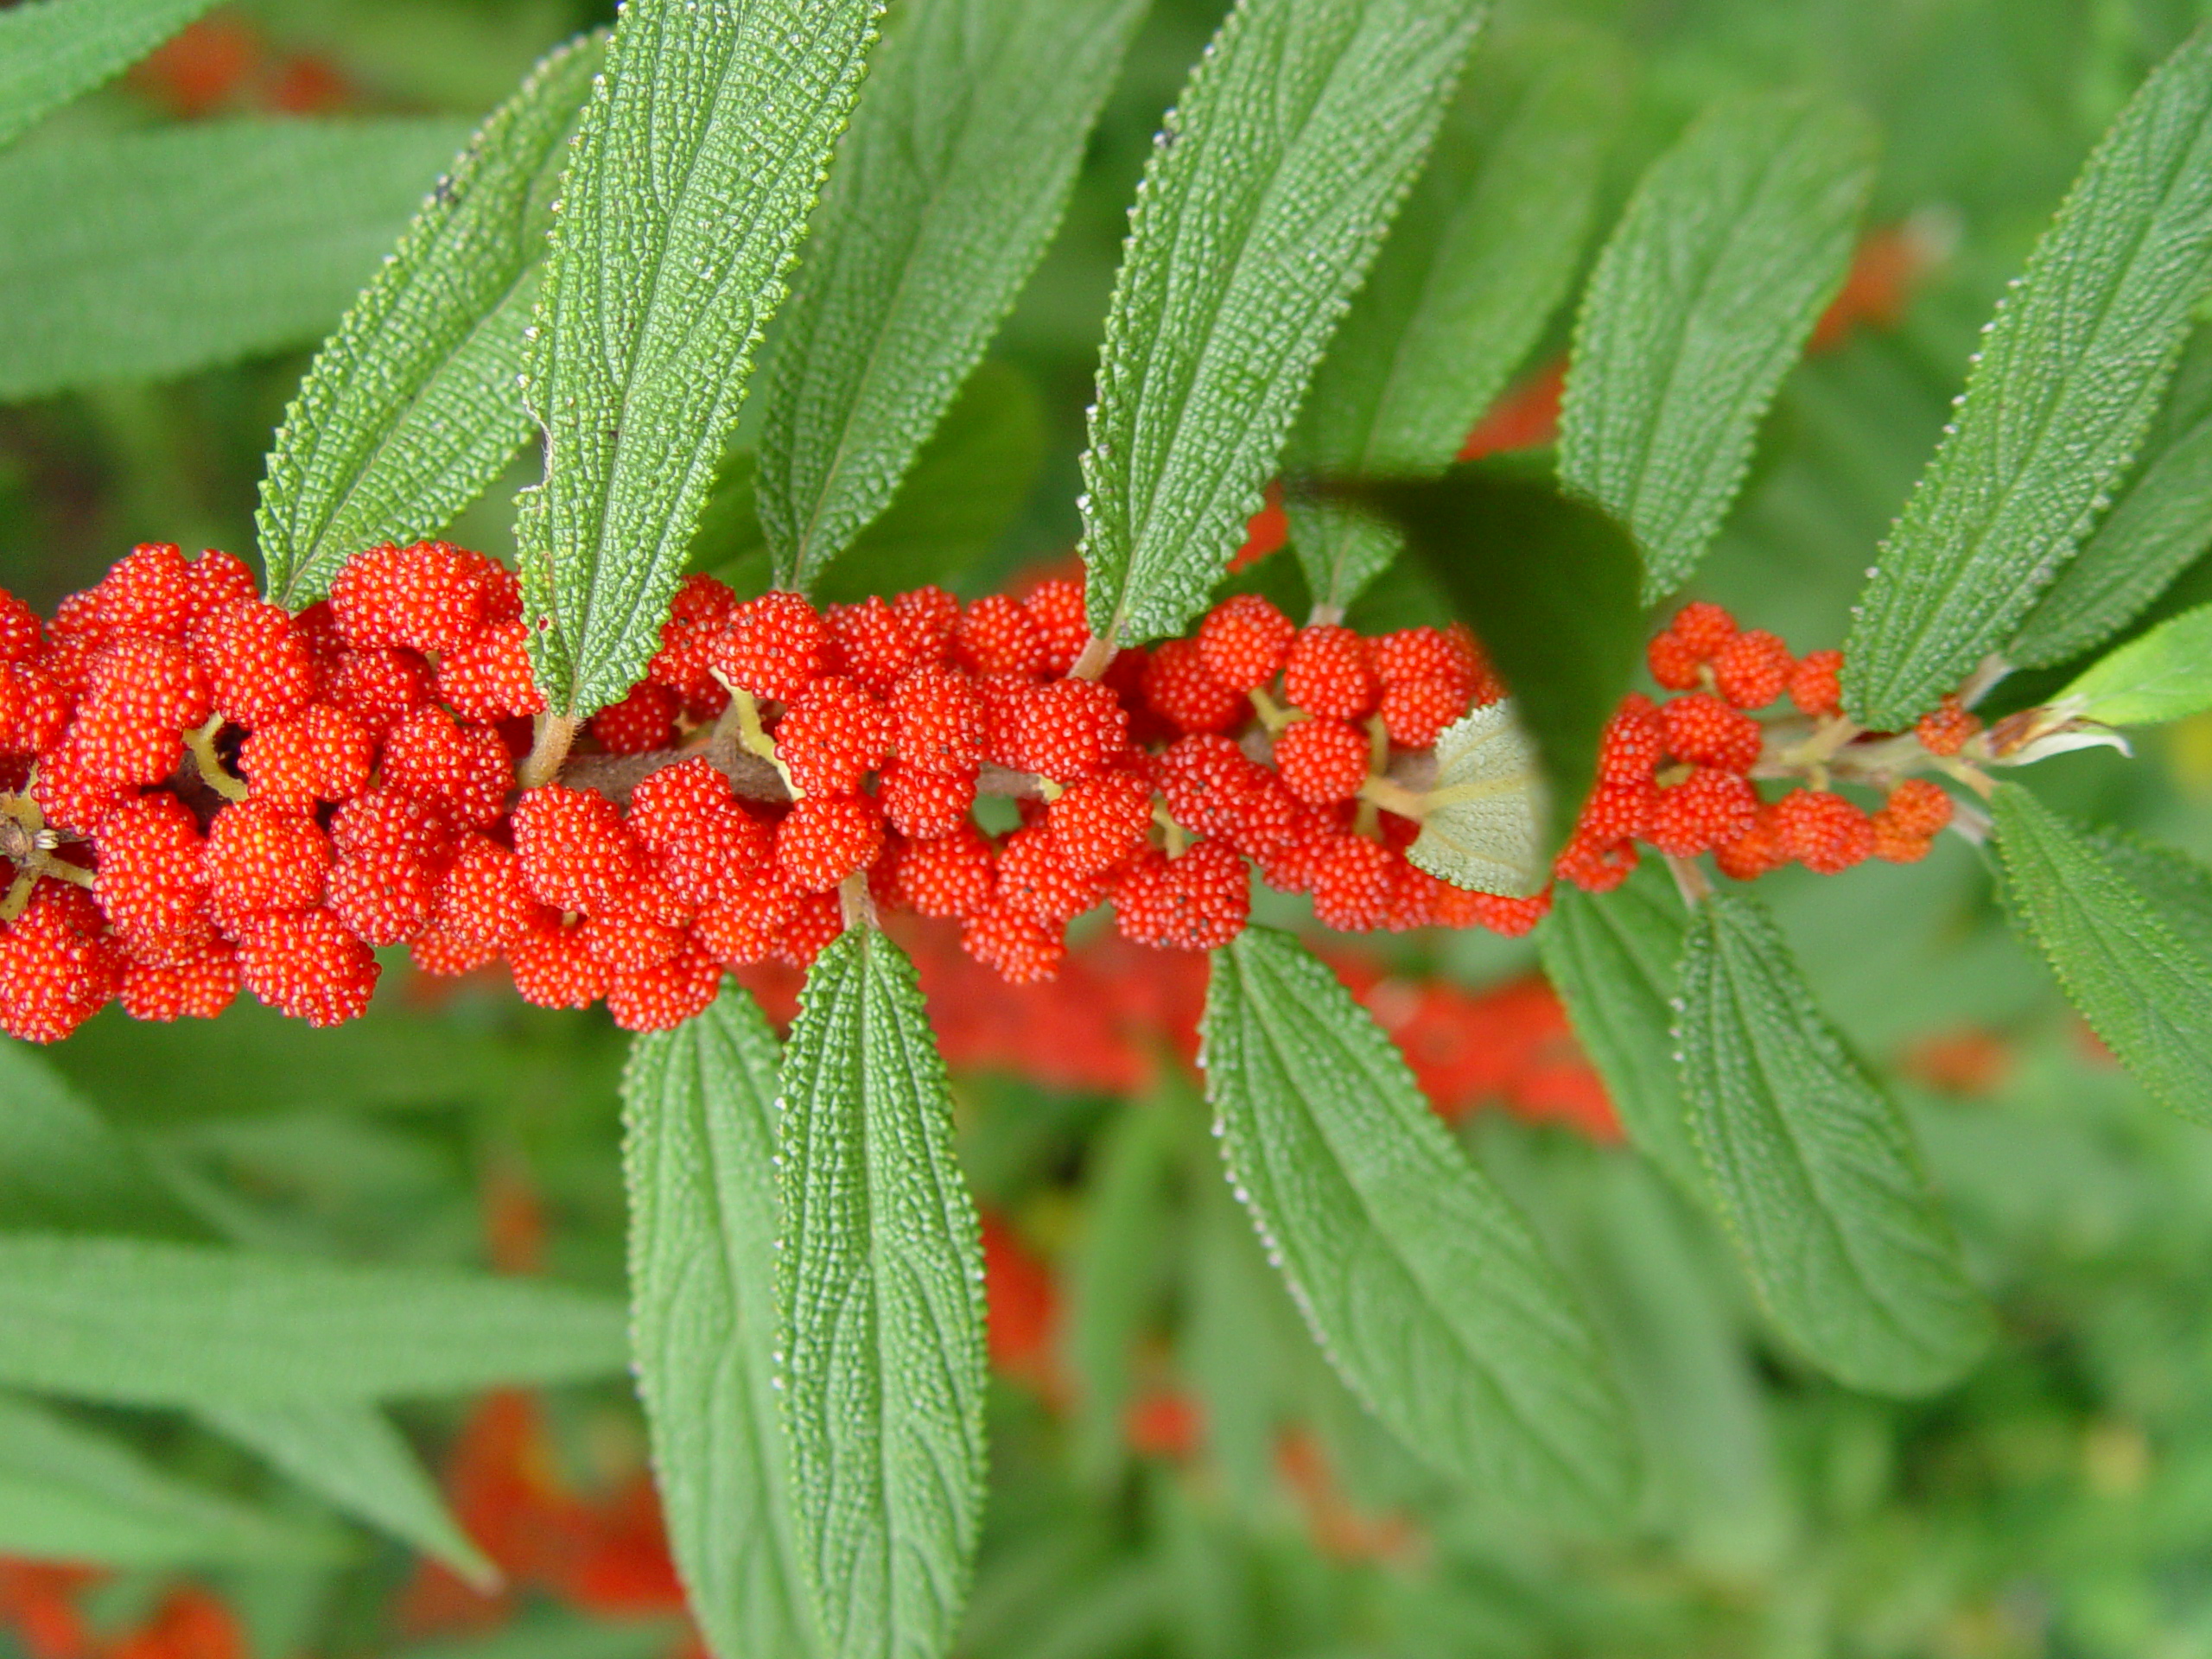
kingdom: Plantae
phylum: Tracheophyta
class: Magnoliopsida
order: Rosales
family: Urticaceae
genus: Debregeasia
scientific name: Debregeasia longifolia
